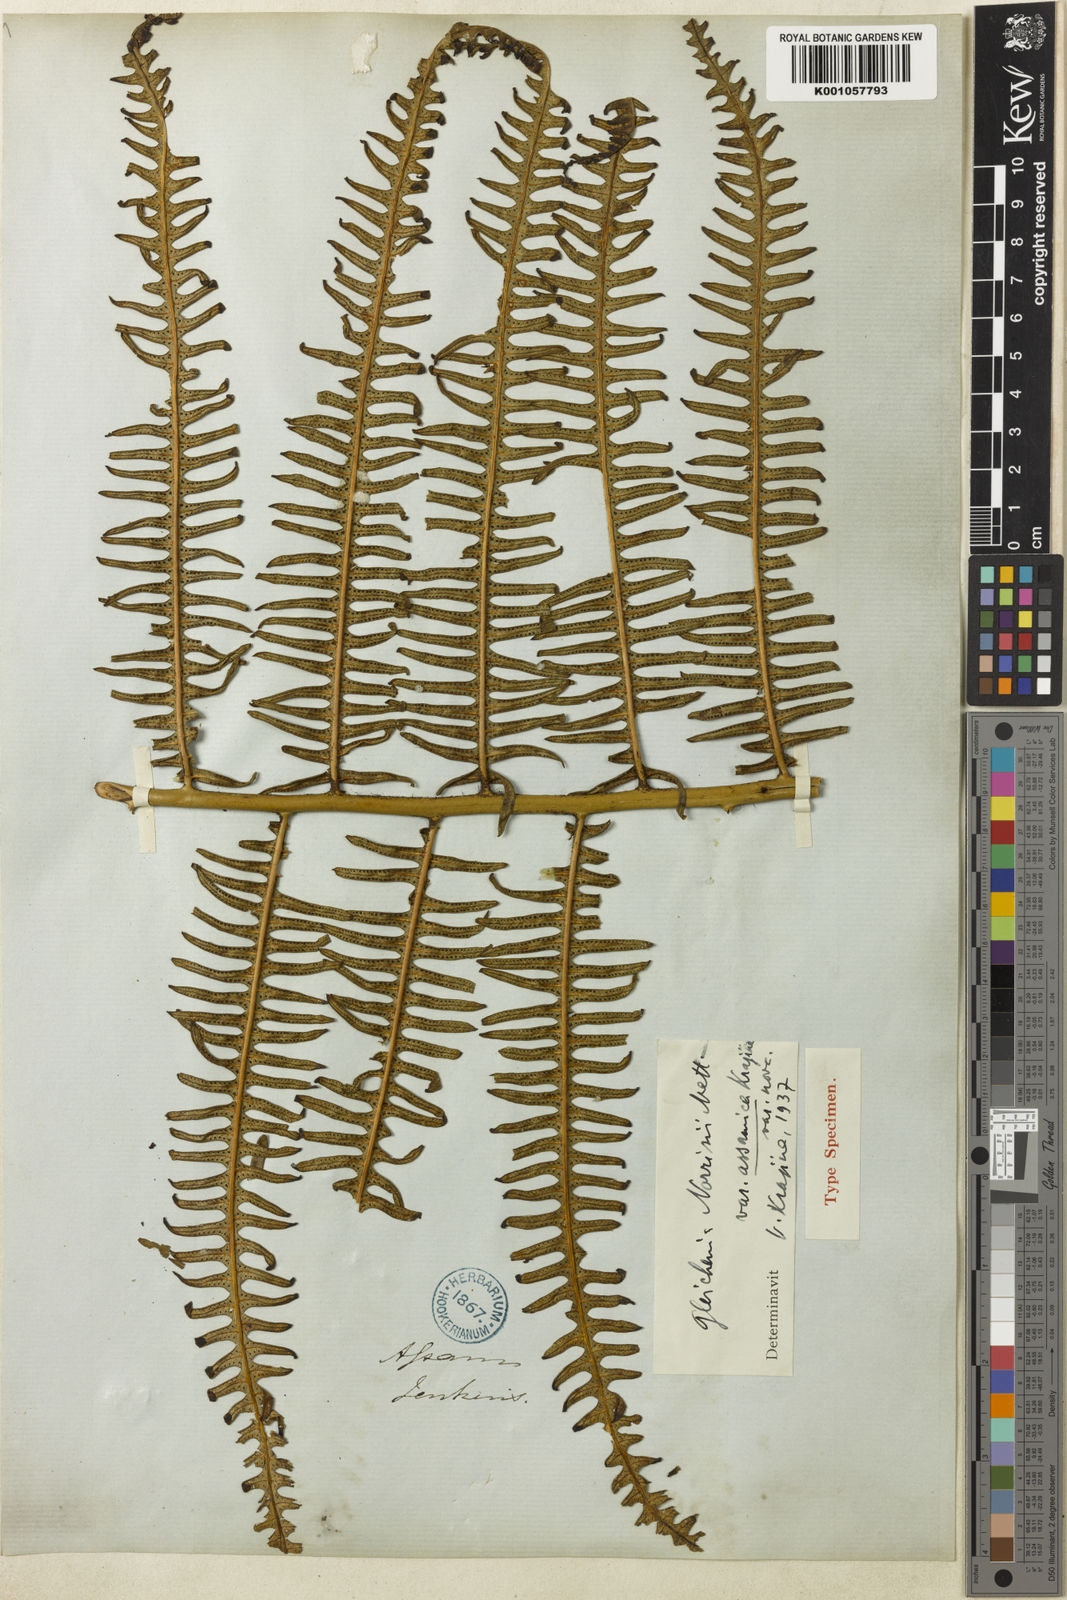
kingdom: Plantae
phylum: Tracheophyta
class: Polypodiopsida
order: Gleicheniales
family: Gleicheniaceae
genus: Diplopterygium
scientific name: Diplopterygium blotianum
